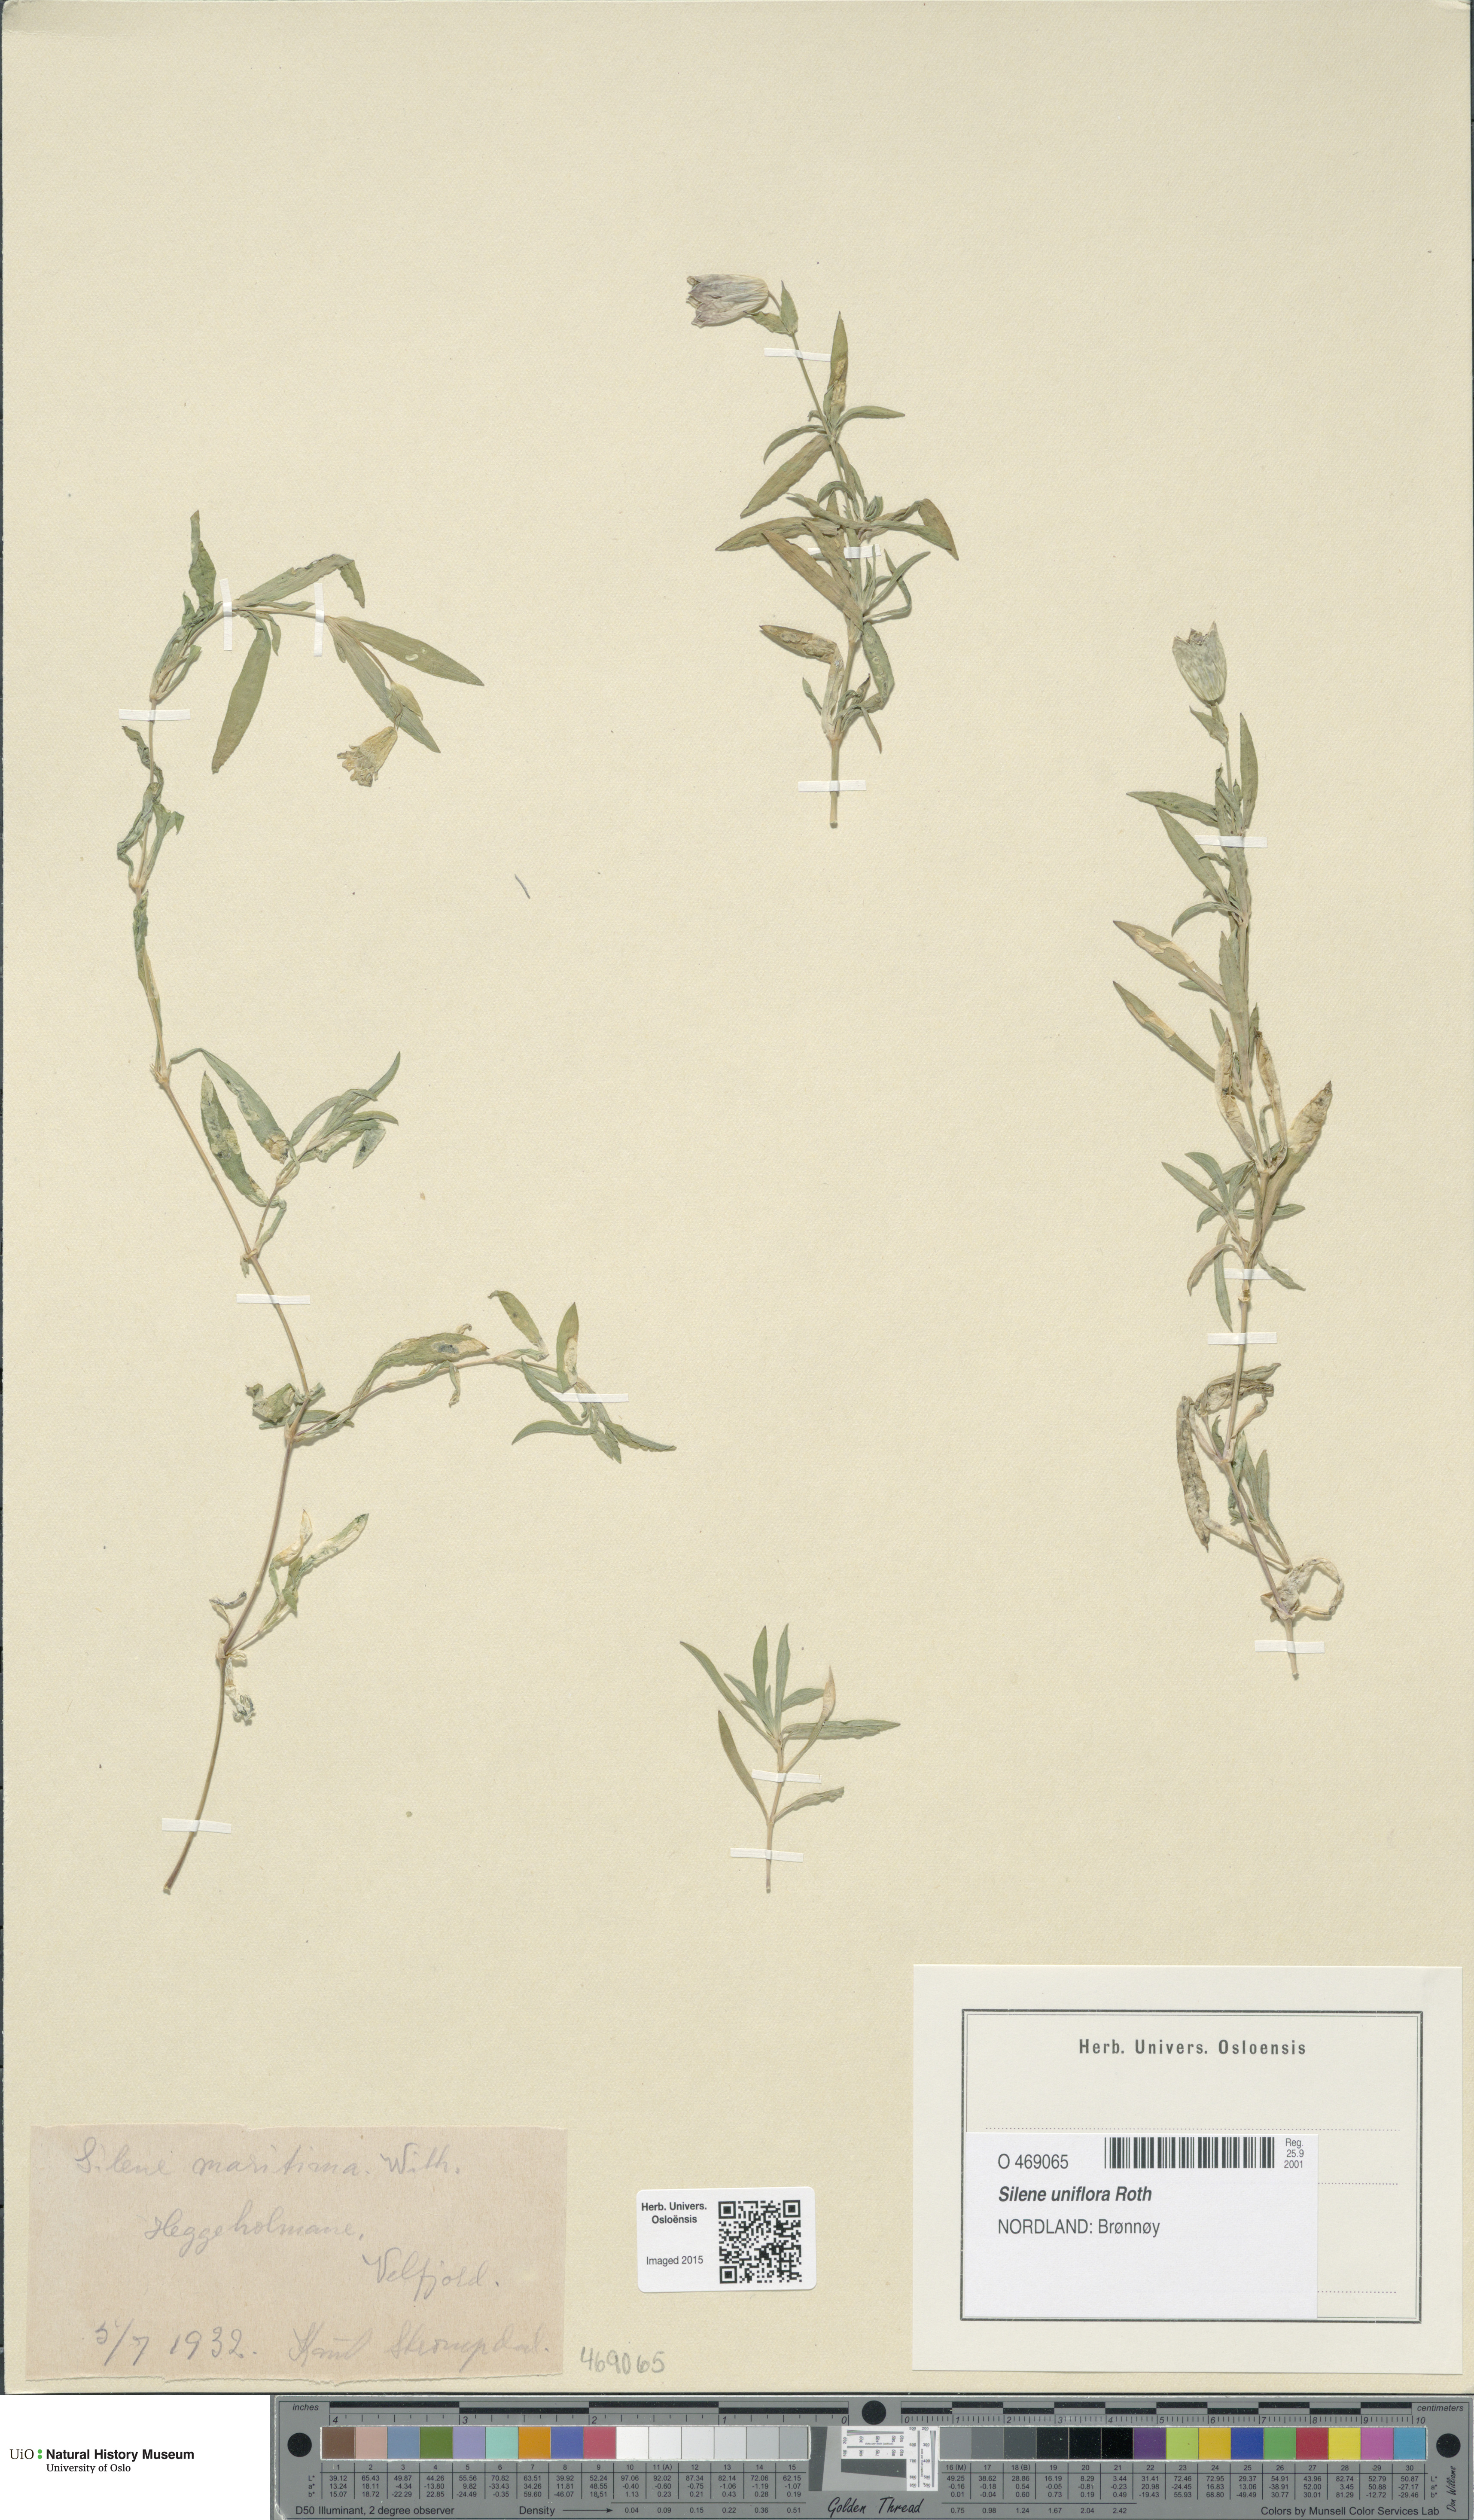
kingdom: Plantae
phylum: Tracheophyta
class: Magnoliopsida
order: Caryophyllales
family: Caryophyllaceae
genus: Silene
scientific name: Silene uniflora
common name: Sea campion
